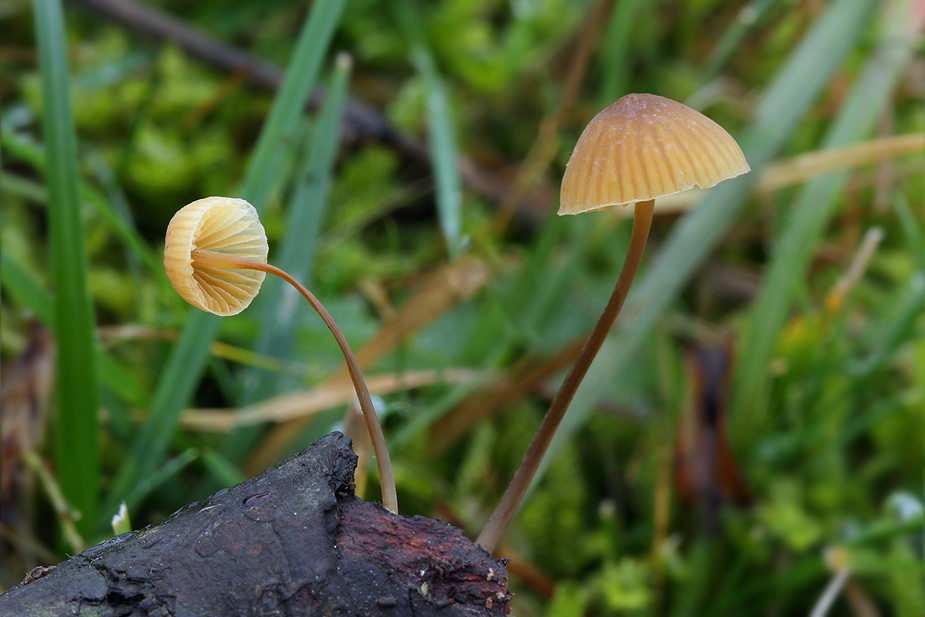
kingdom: Fungi
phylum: Basidiomycota
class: Agaricomycetes
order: Agaricales
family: Mycenaceae
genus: Mycena
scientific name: Mycena arcangeliana
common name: oliven-huesvamp
